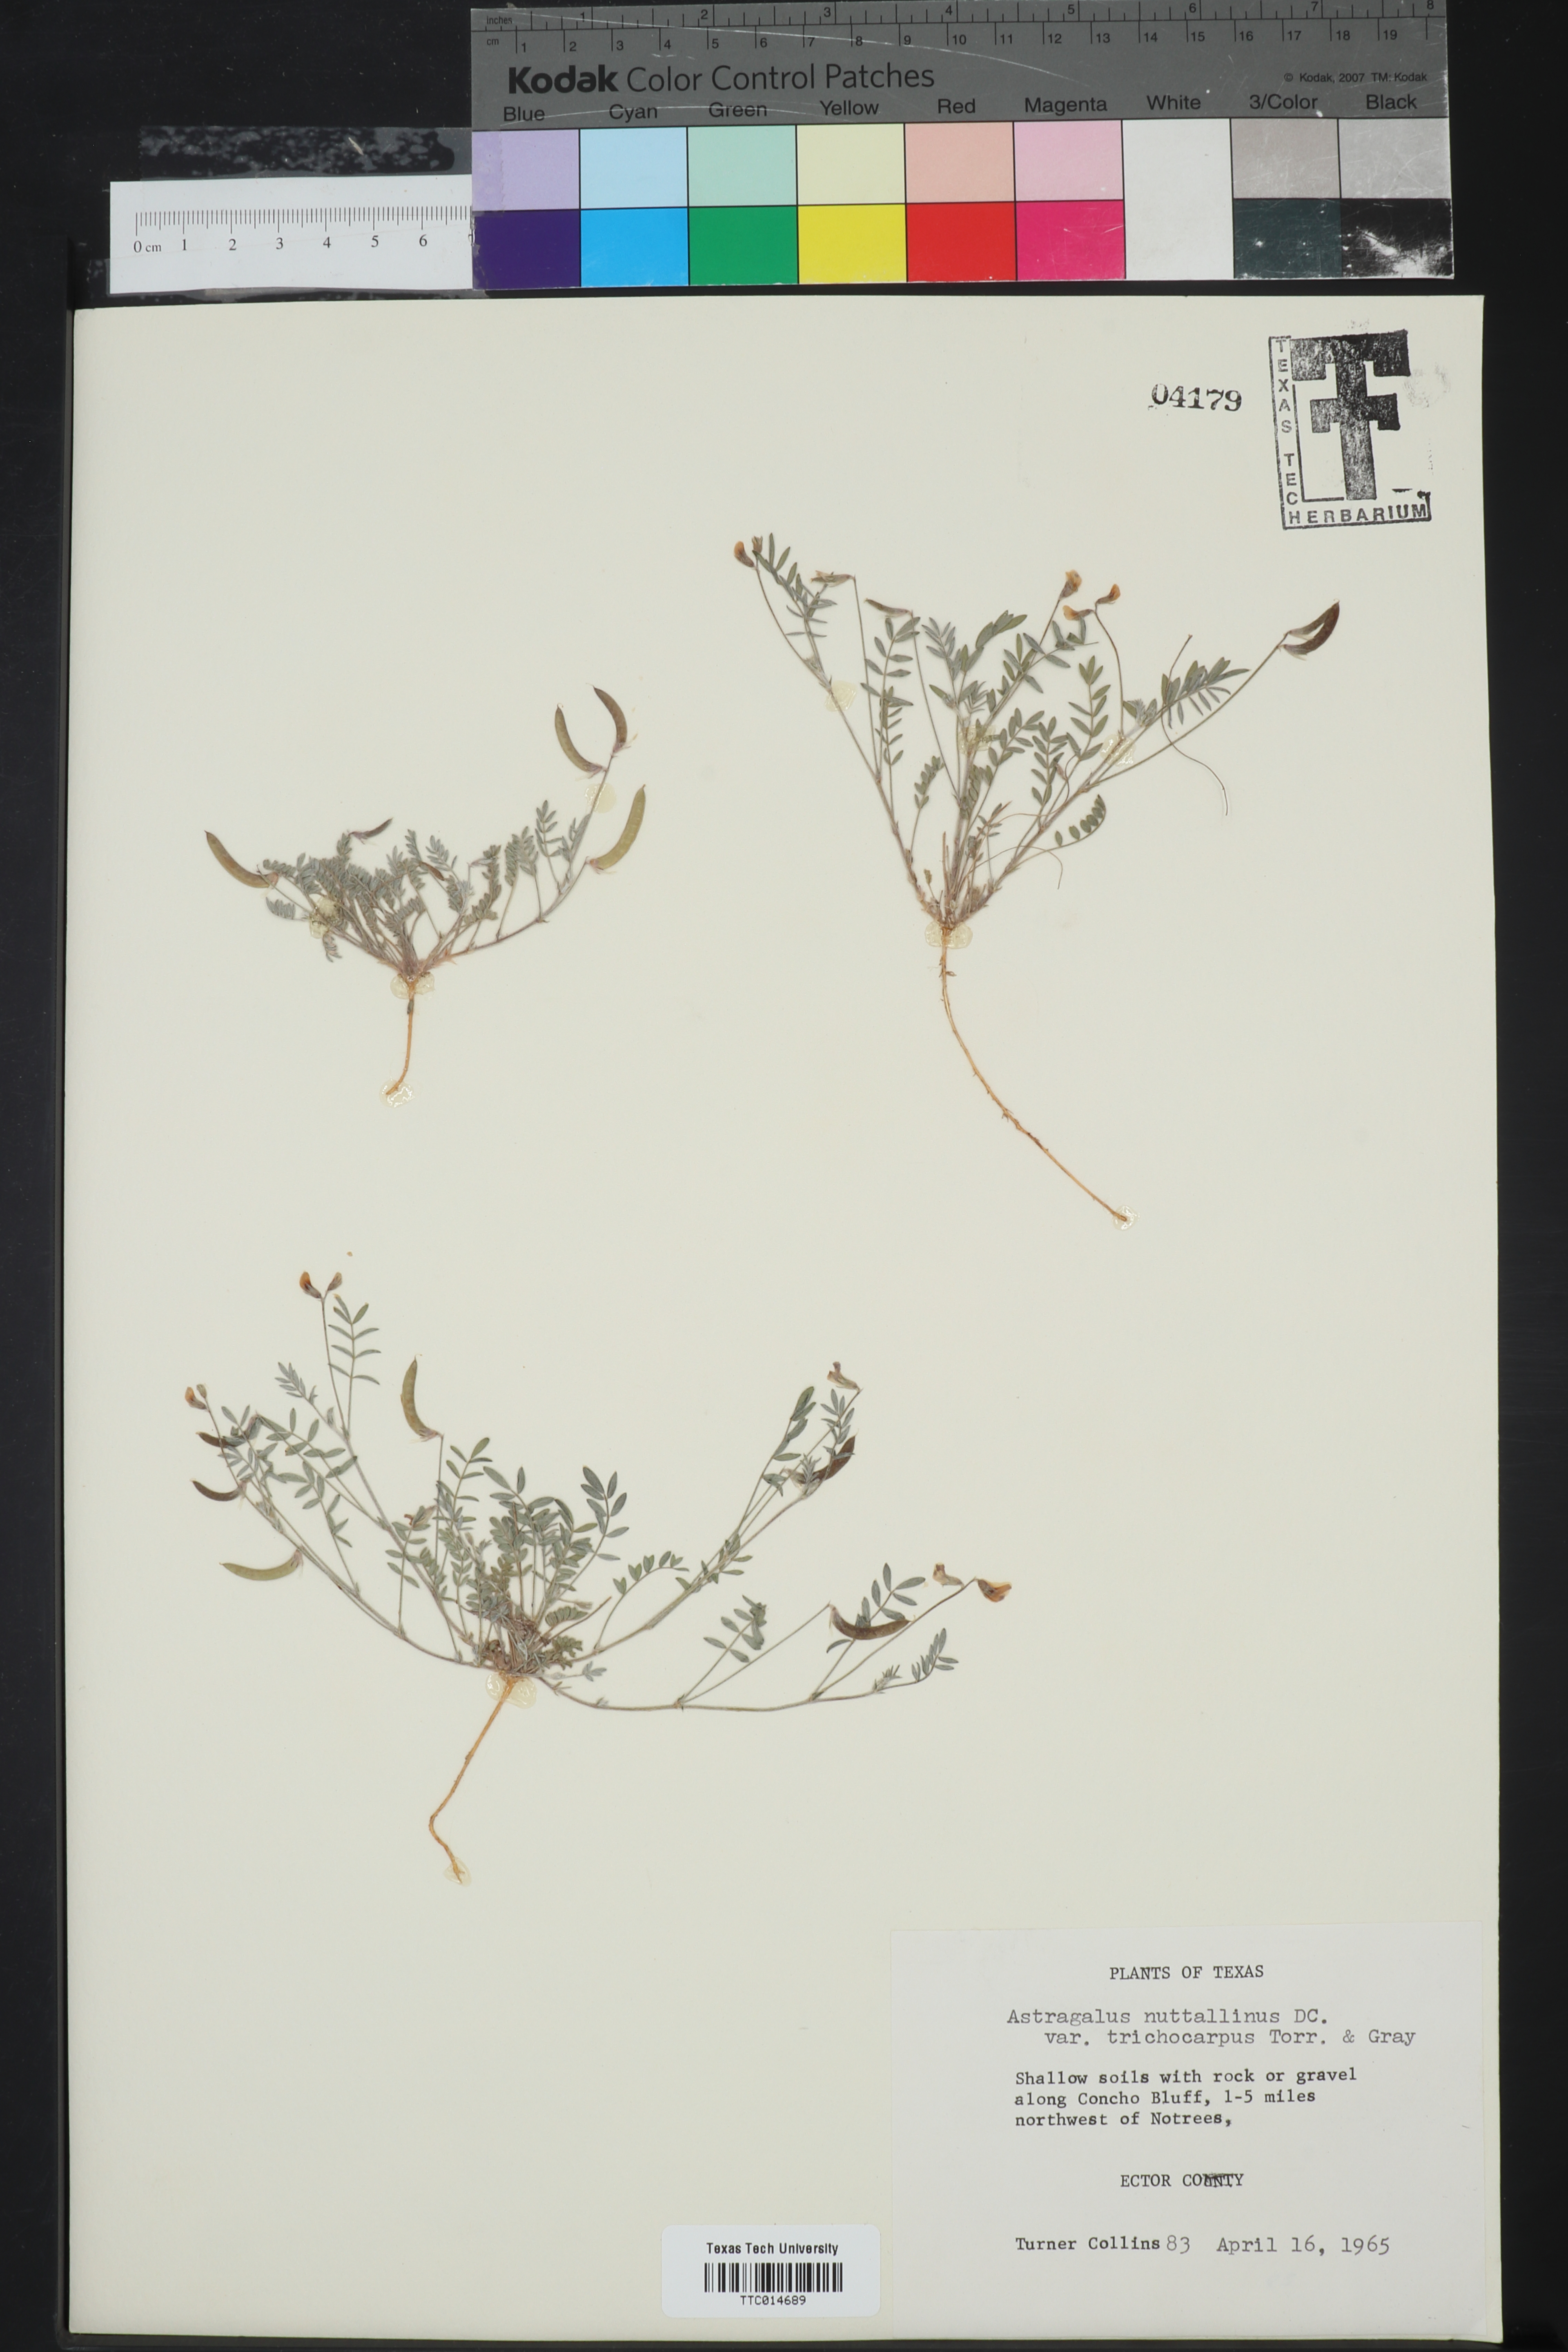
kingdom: Plantae
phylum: Tracheophyta
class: Magnoliopsida
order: Fabales
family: Fabaceae
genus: Astragalus
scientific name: Astragalus nuttallianus
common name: Smallflowered milkvetch
